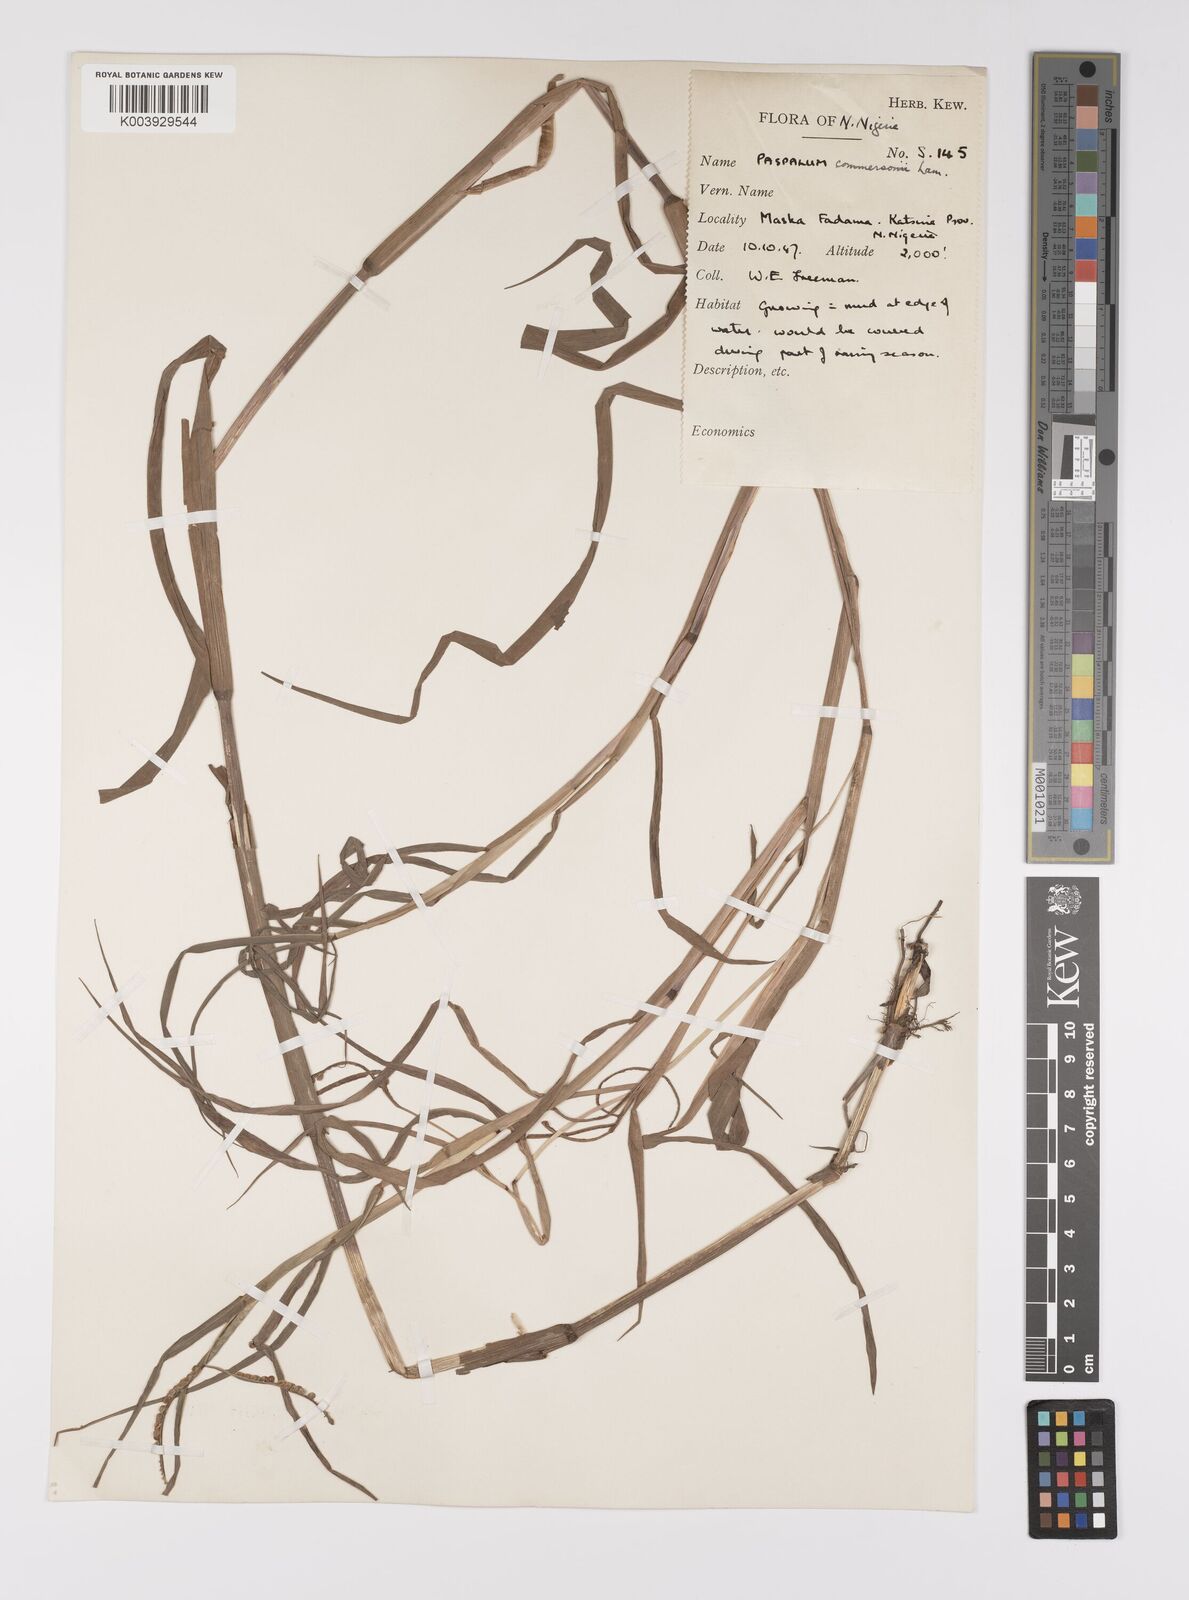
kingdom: Plantae
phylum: Tracheophyta
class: Liliopsida
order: Poales
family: Poaceae
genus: Paspalum
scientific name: Paspalum scrobiculatum
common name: Kodo millet
